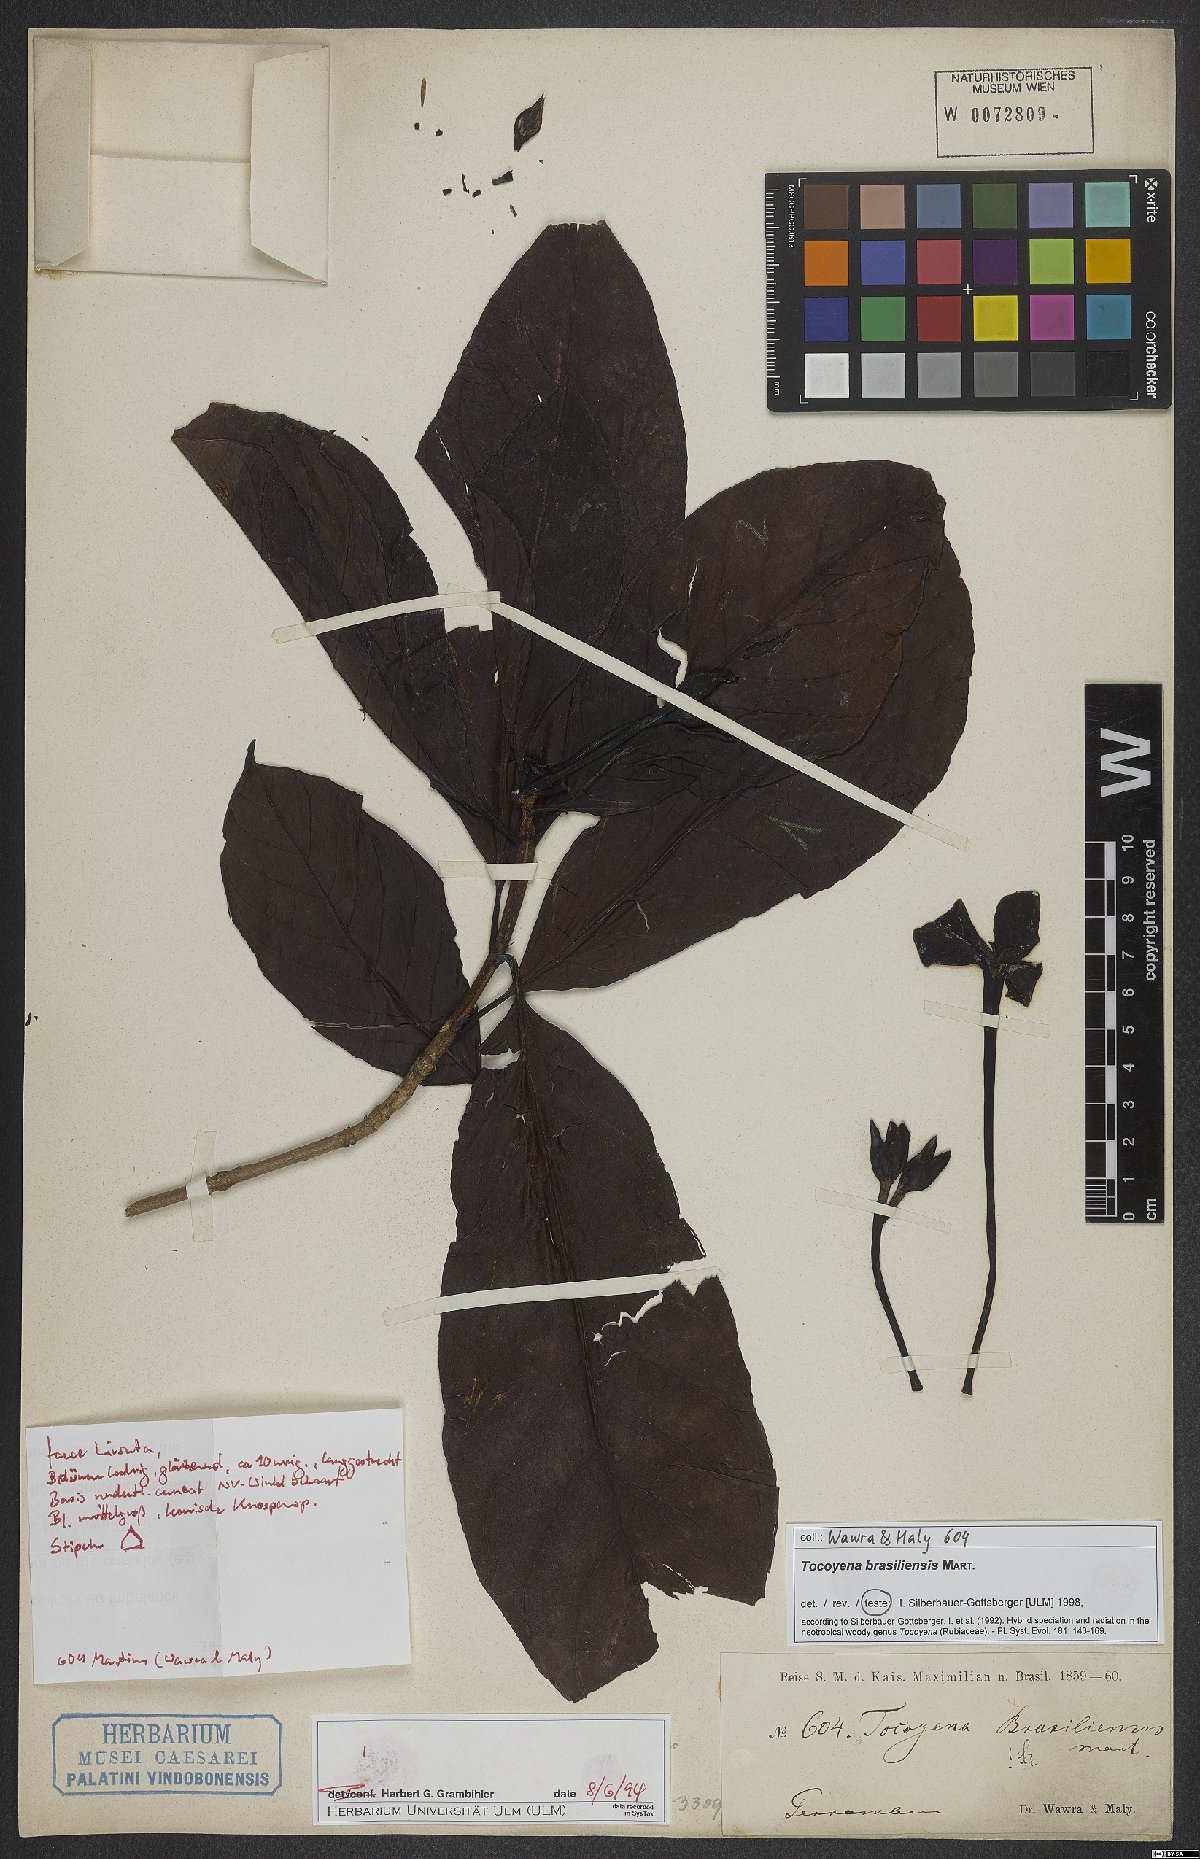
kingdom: Plantae
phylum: Tracheophyta
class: Magnoliopsida
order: Gentianales
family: Rubiaceae
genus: Tocoyena
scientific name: Tocoyena sprucei
